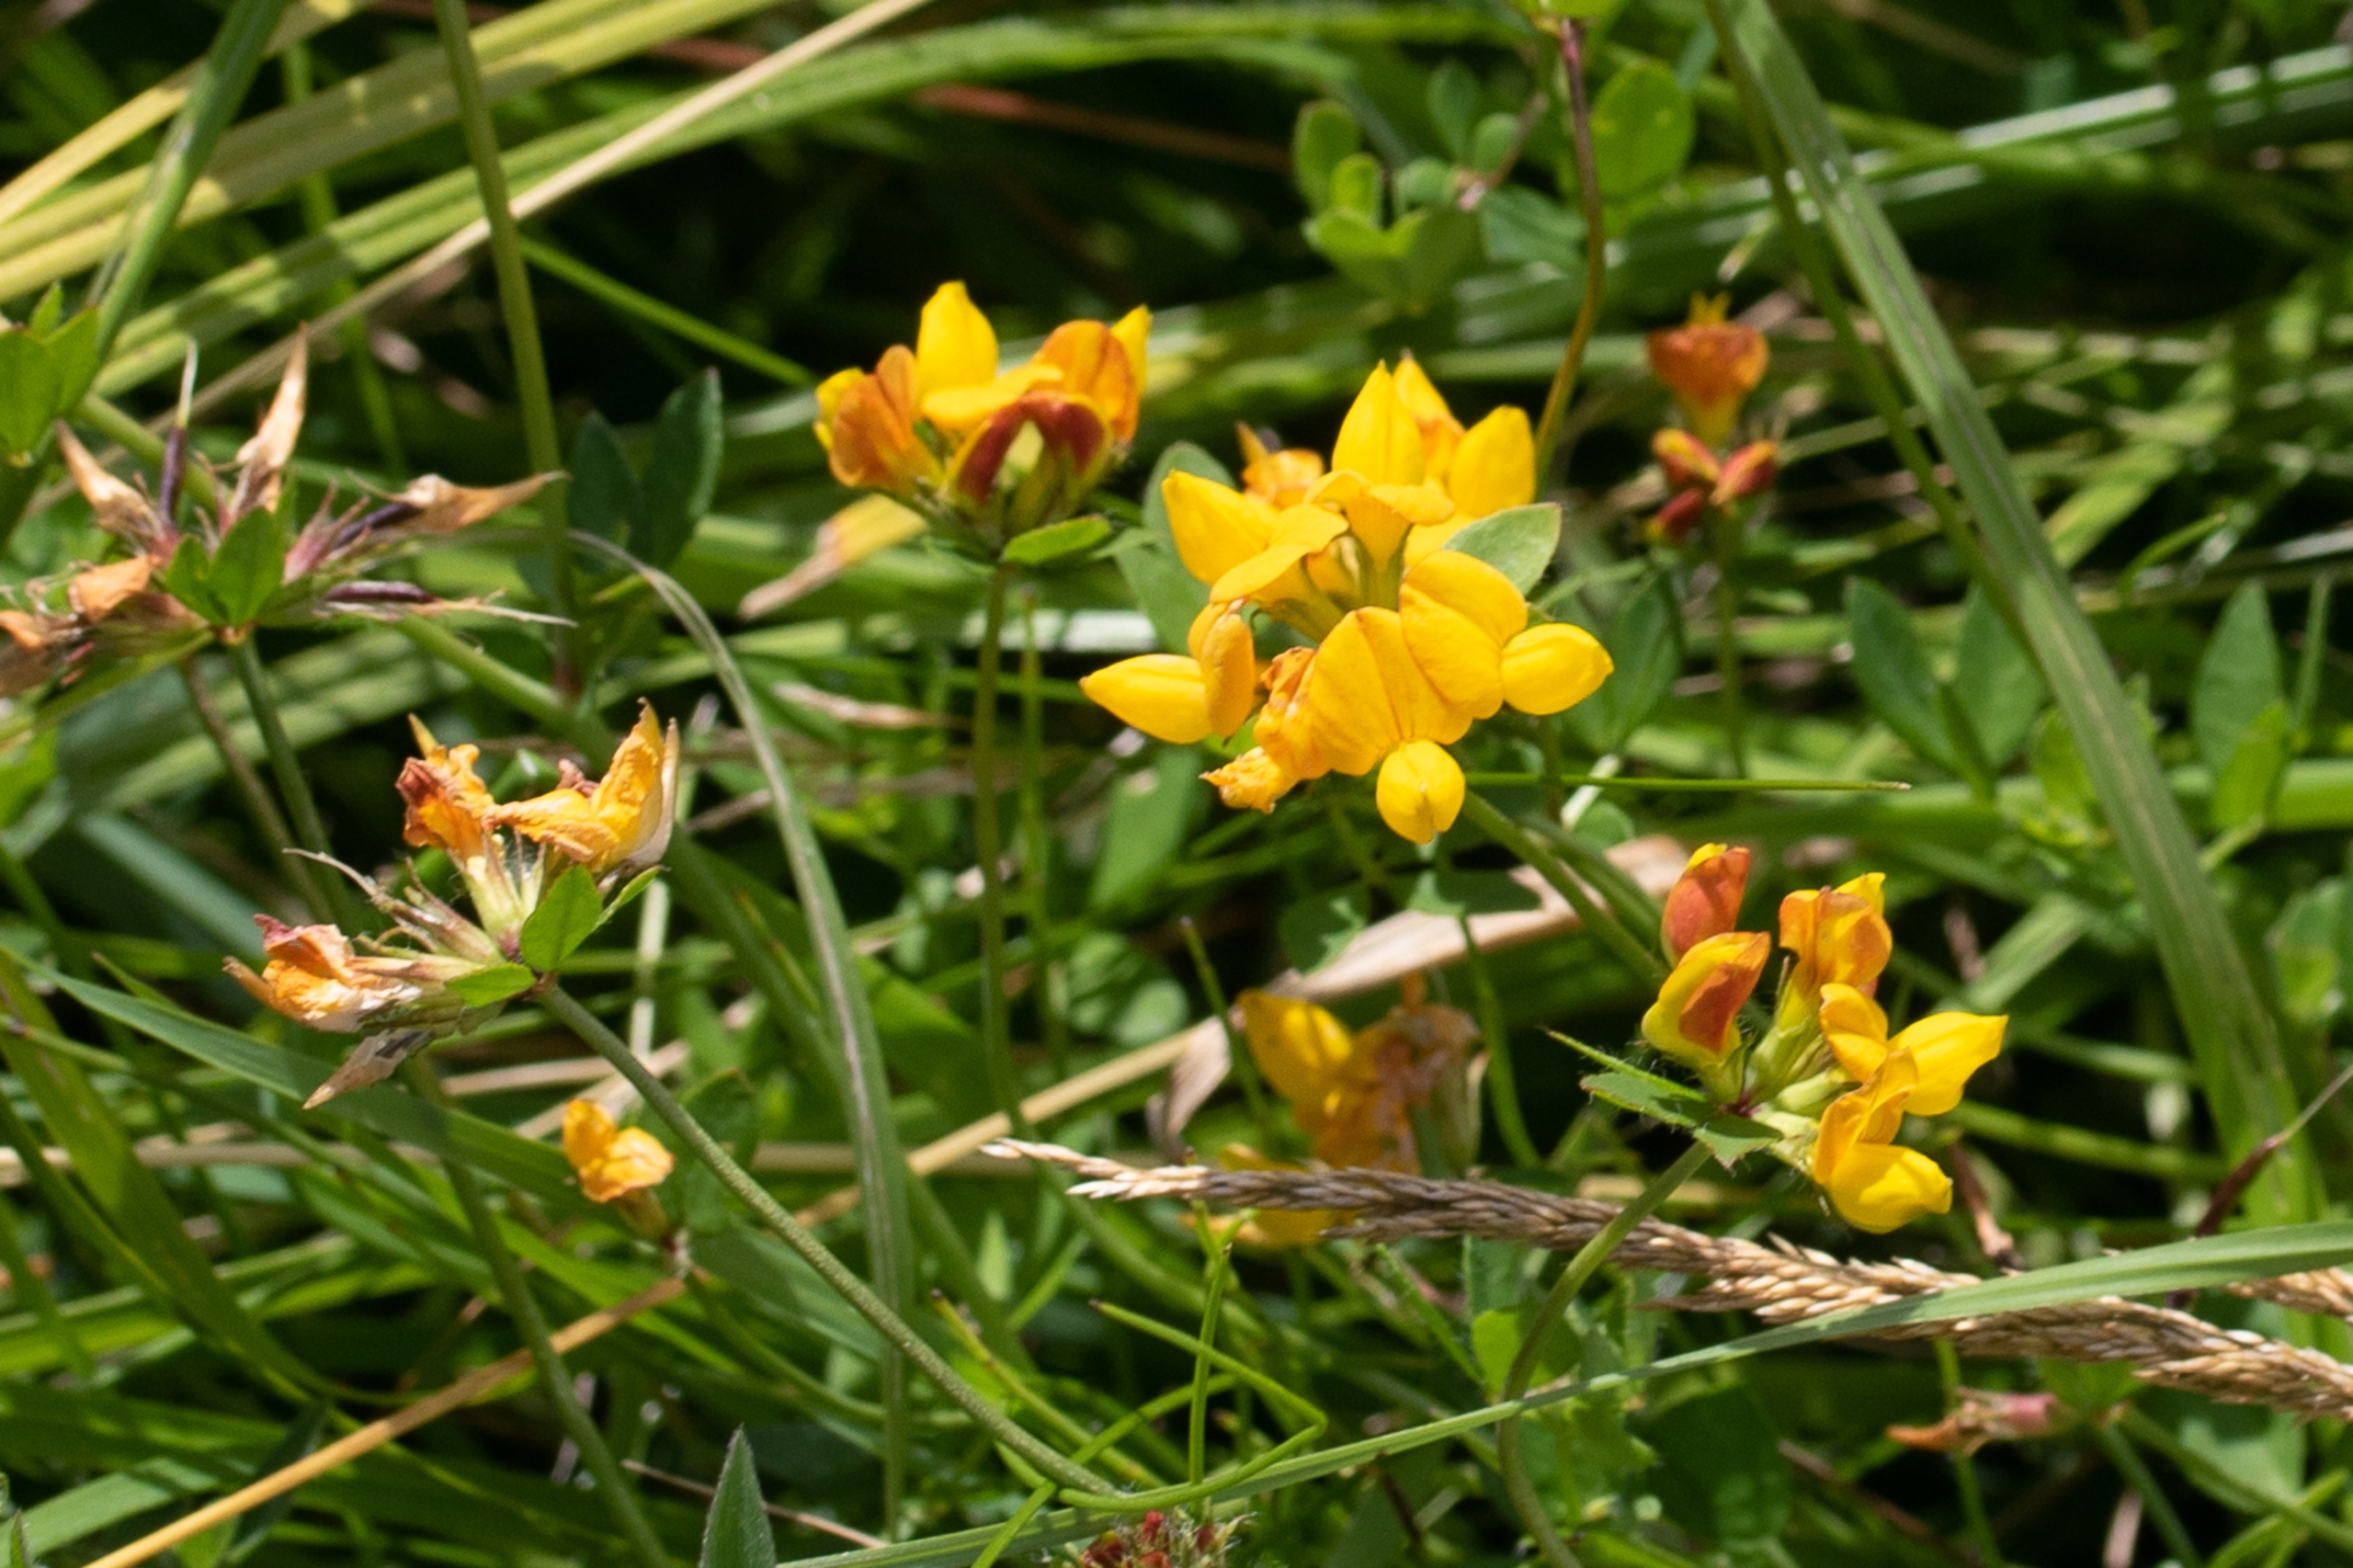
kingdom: Plantae
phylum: Tracheophyta
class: Magnoliopsida
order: Fabales
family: Fabaceae
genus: Lotus
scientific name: Lotus corniculatus
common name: Almindelig kællingetand
